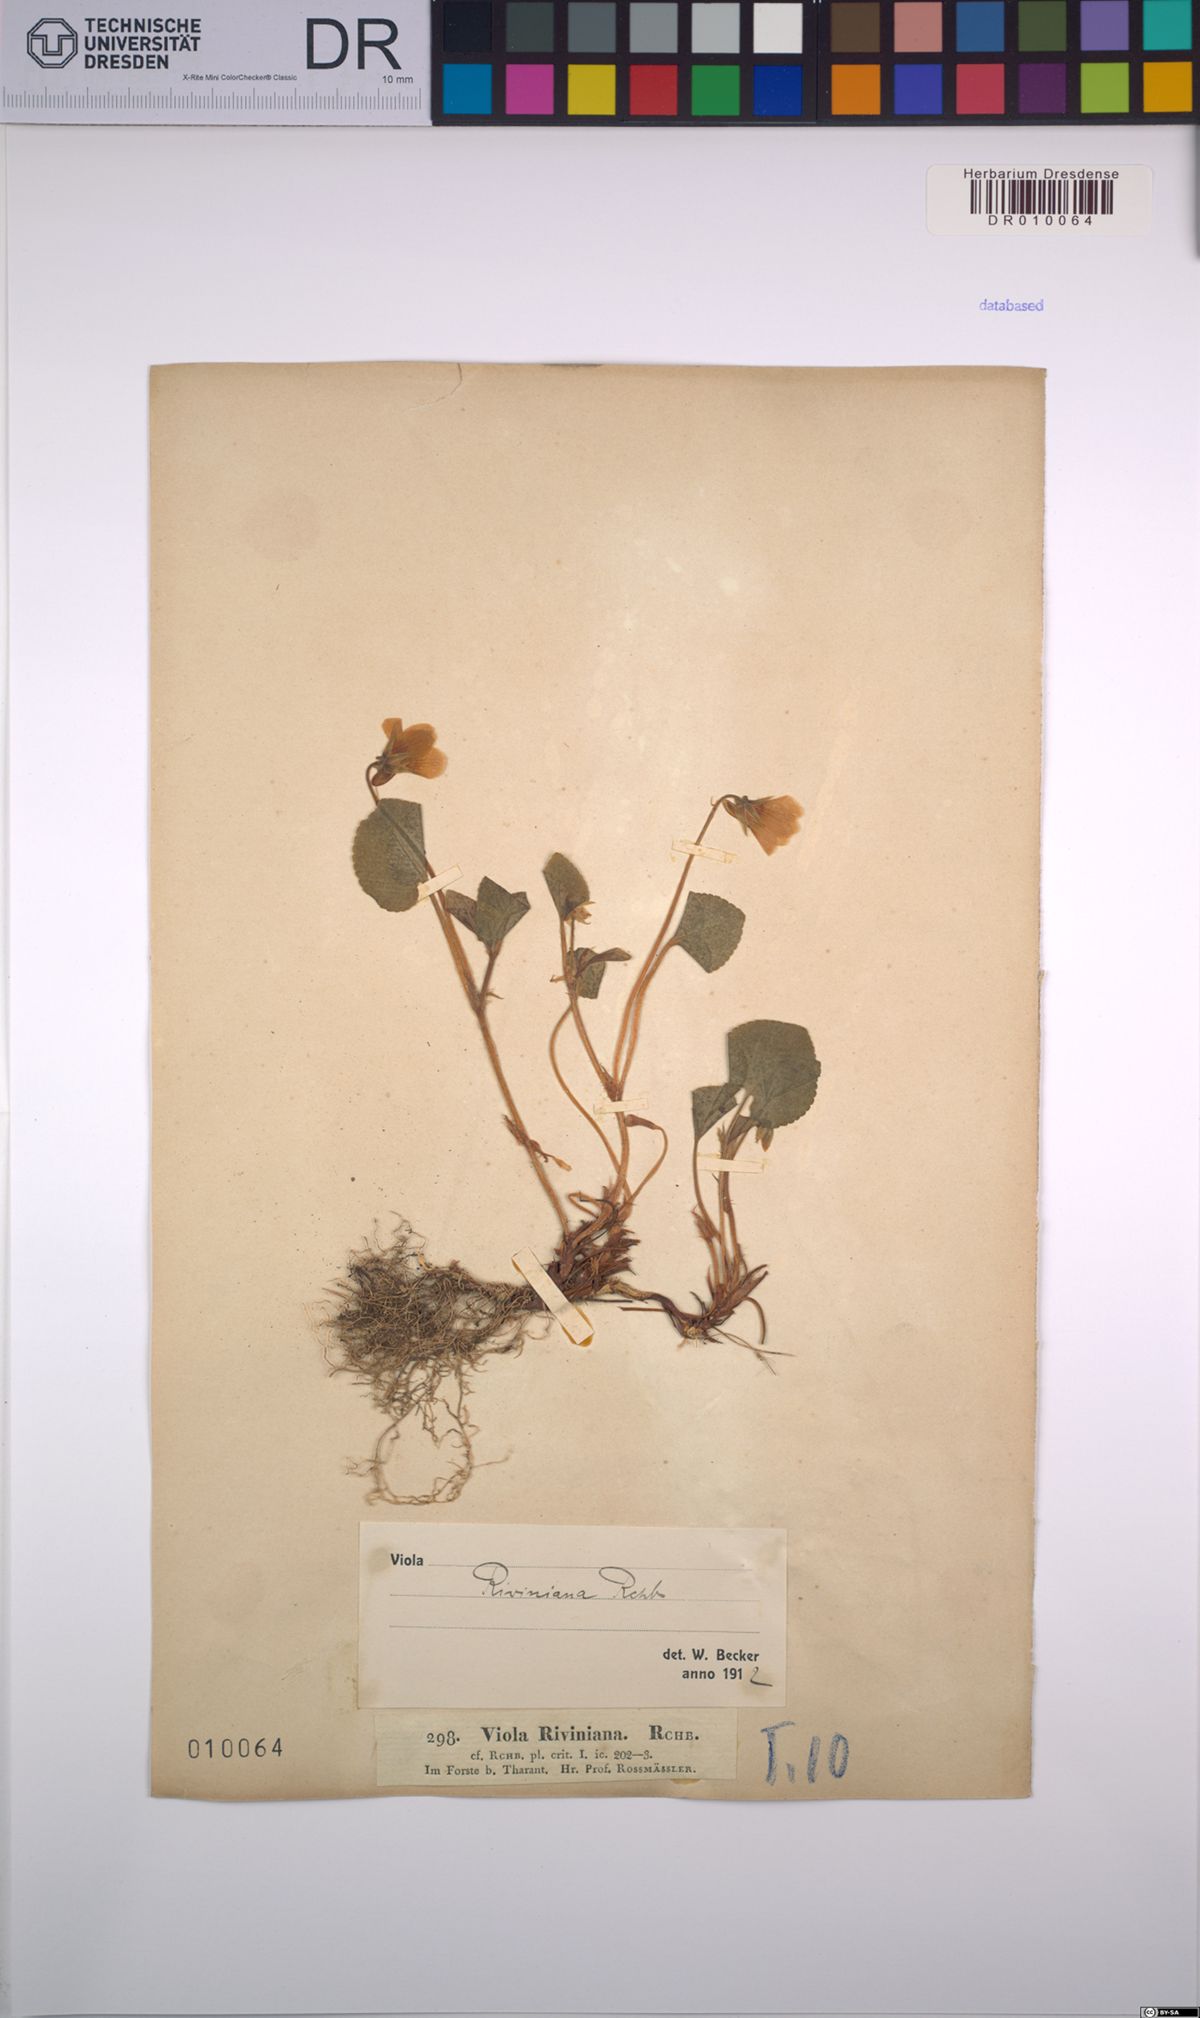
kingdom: Plantae
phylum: Tracheophyta
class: Magnoliopsida
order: Malpighiales
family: Violaceae
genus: Viola
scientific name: Viola riviniana
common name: Common dog-violet
